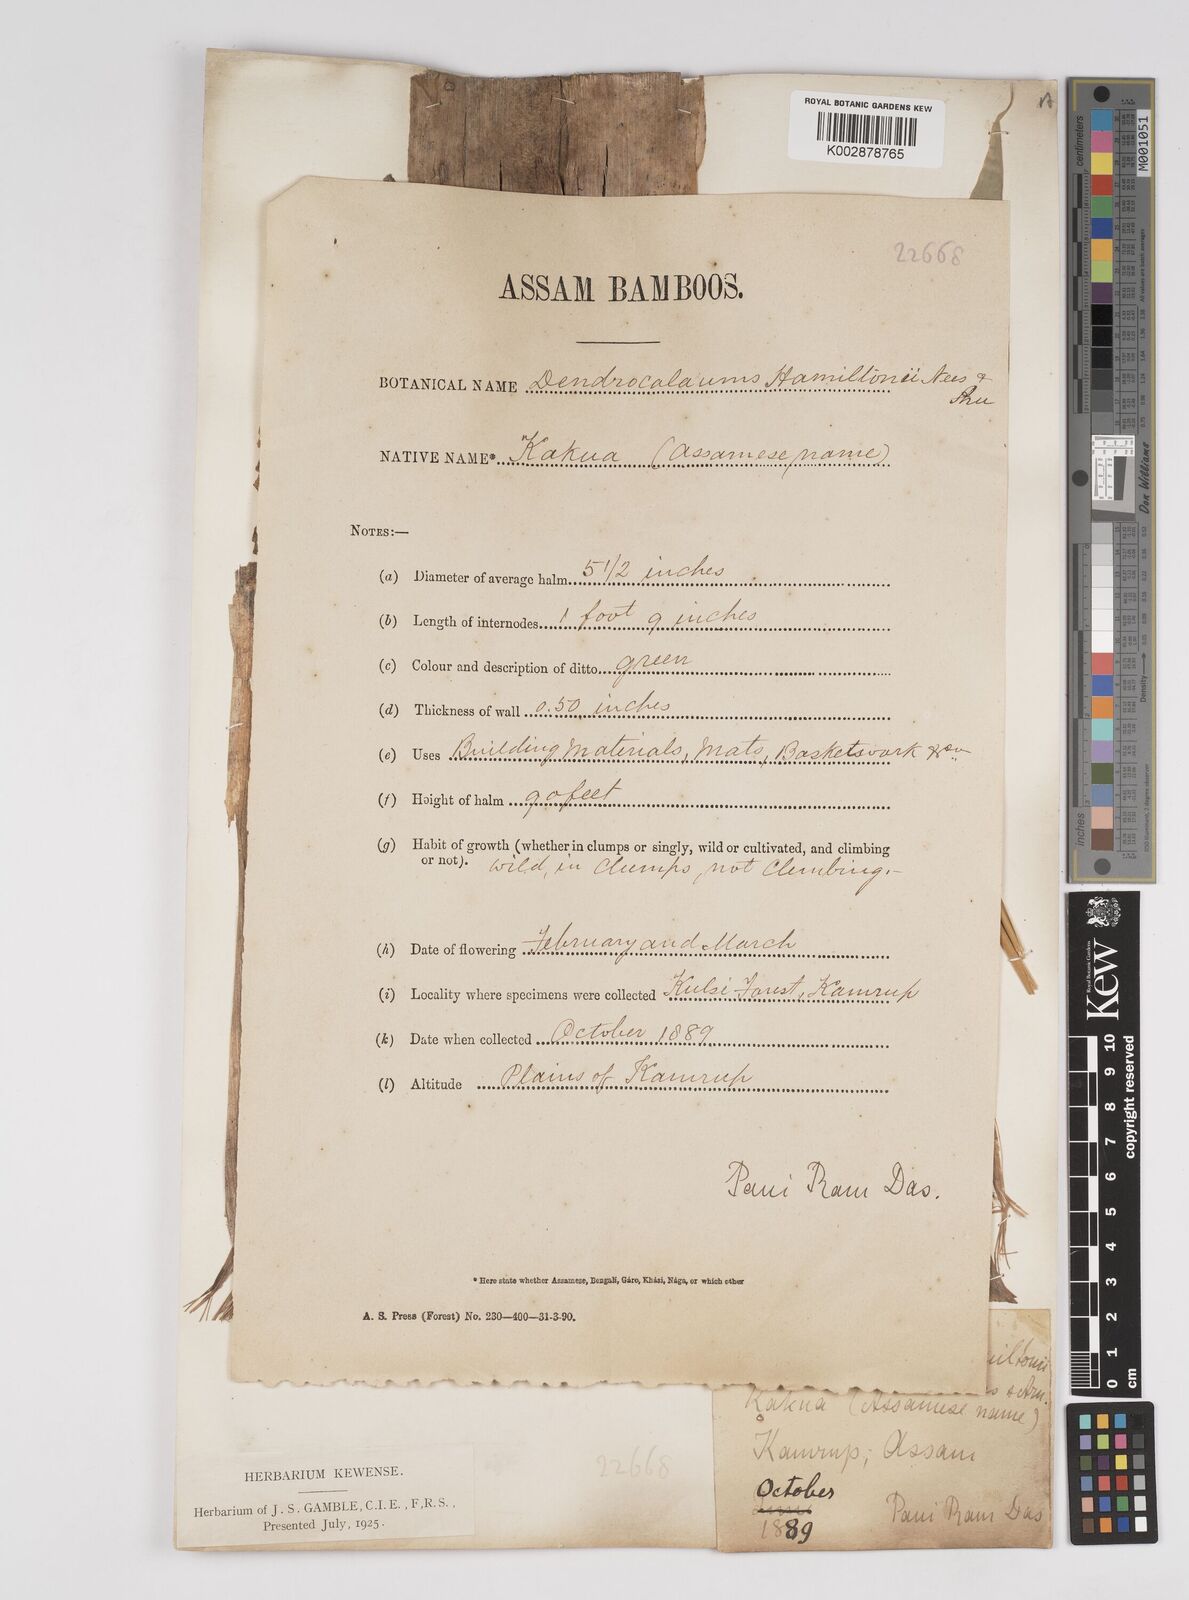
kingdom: Plantae
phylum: Tracheophyta
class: Liliopsida
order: Poales
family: Poaceae
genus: Dendrocalamus
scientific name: Dendrocalamus hamiltonii
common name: Tama bamboo
